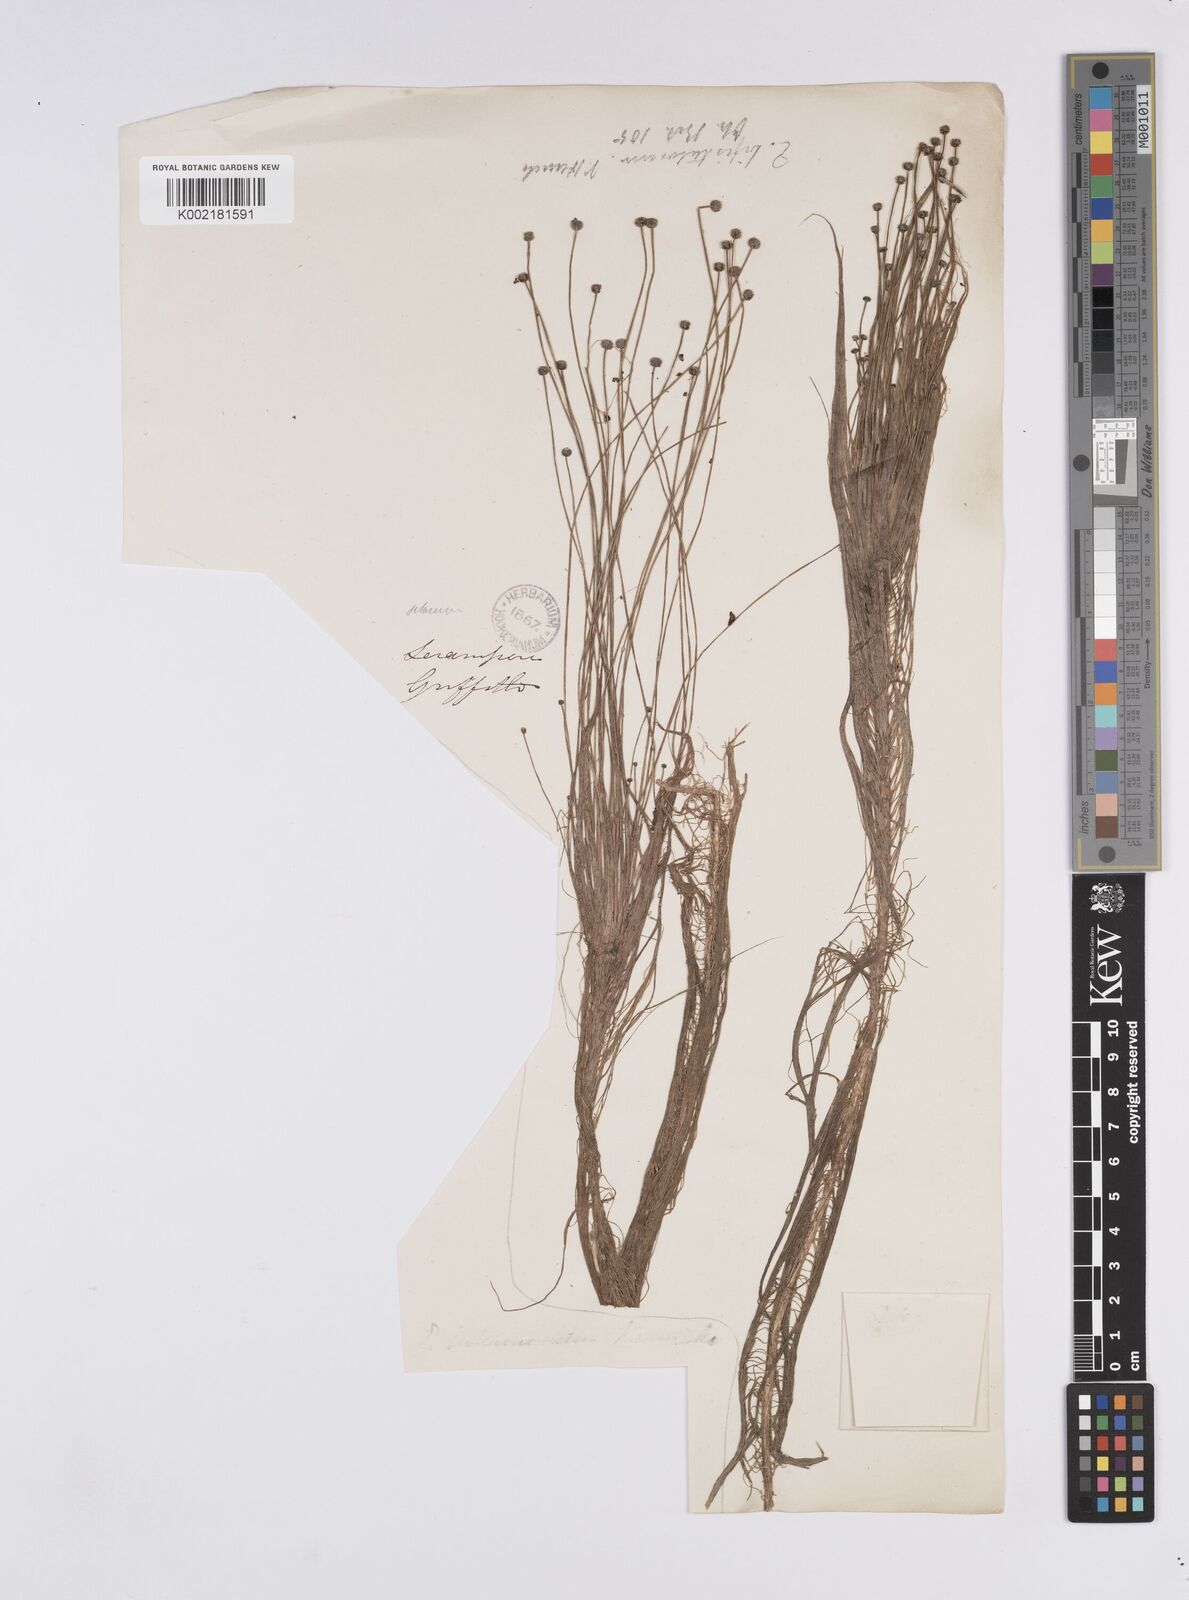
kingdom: Plantae
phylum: Tracheophyta
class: Liliopsida
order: Poales
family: Eriocaulaceae
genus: Eriocaulon
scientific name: Eriocaulon setaceum
